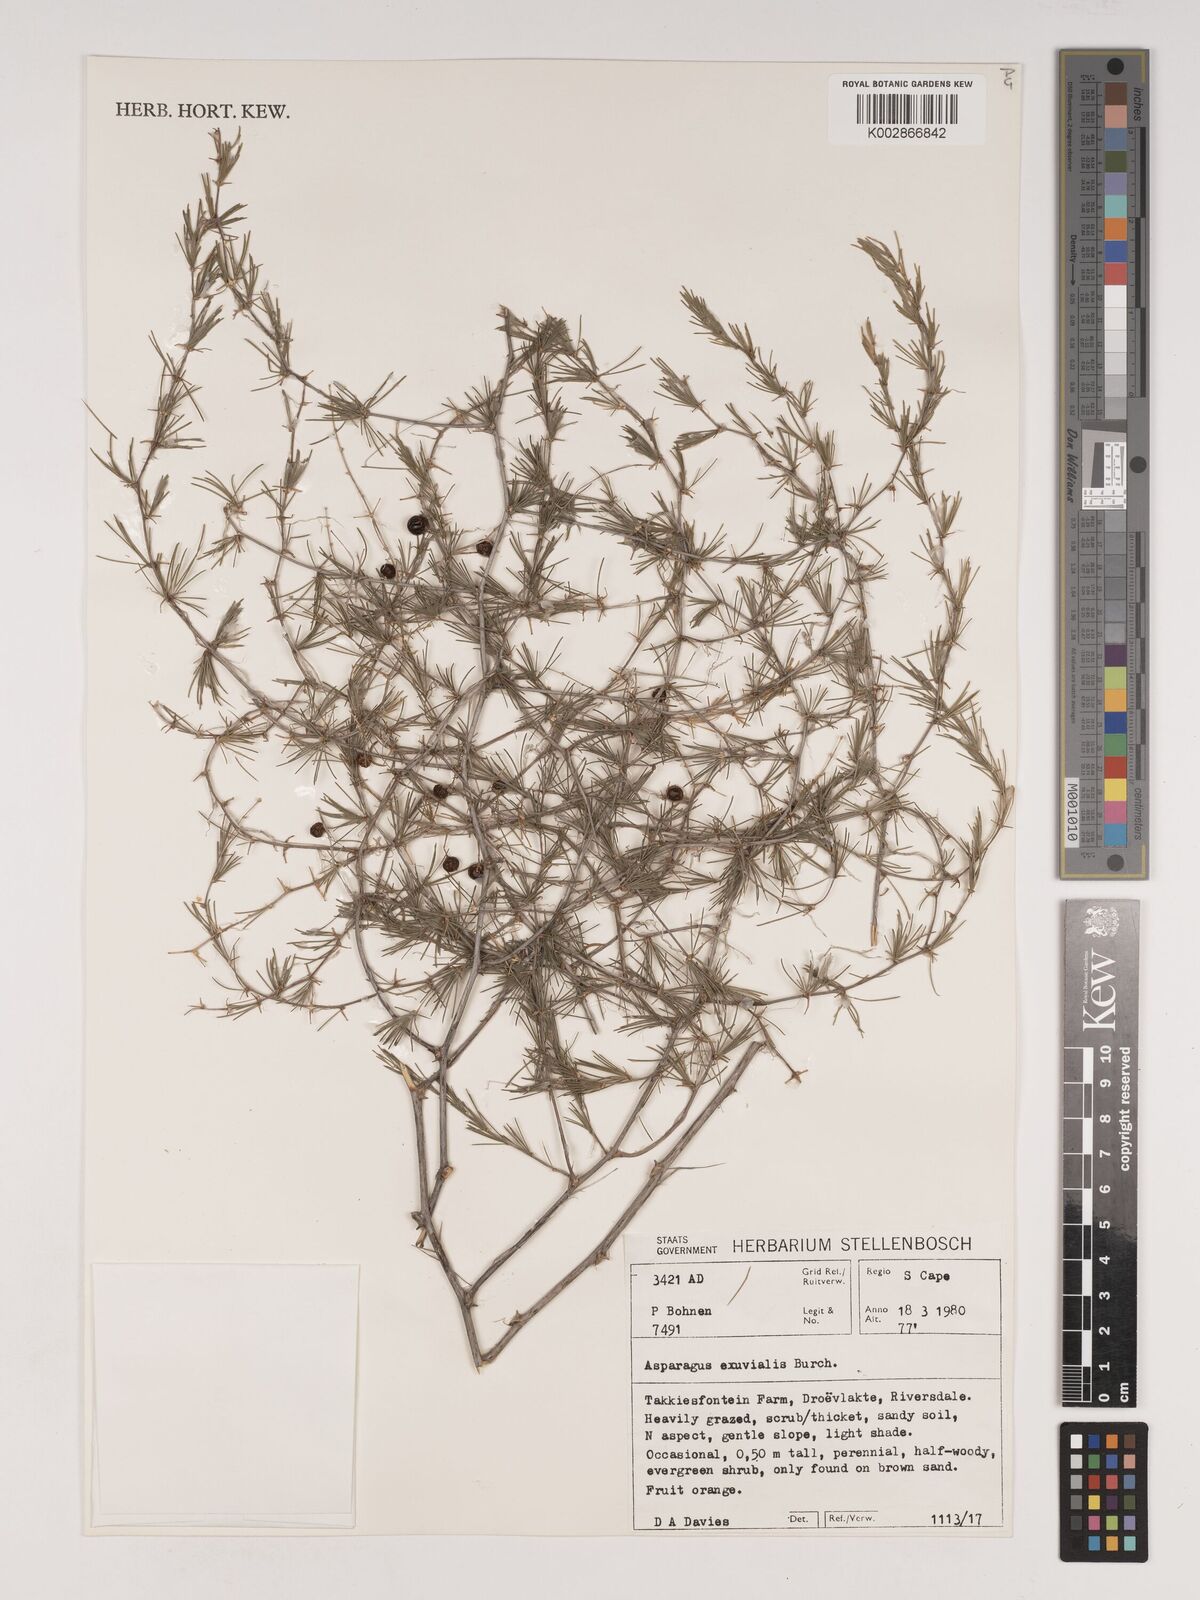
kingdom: Plantae
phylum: Tracheophyta
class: Liliopsida
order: Asparagales
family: Asparagaceae
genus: Asparagus
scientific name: Asparagus exuvialis
